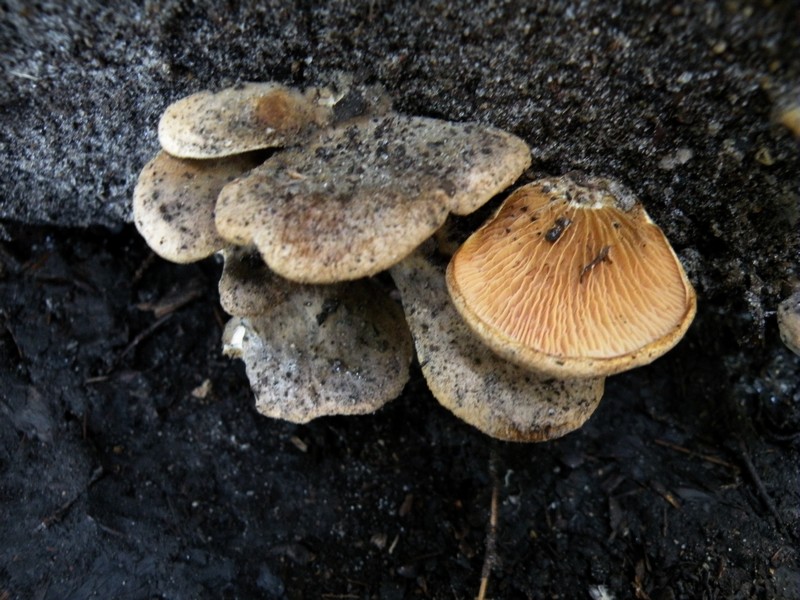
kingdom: Fungi
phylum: Basidiomycota
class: Agaricomycetes
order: Boletales
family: Tapinellaceae
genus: Tapinella
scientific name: Tapinella panuoides
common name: tømmer-viftesvamp
